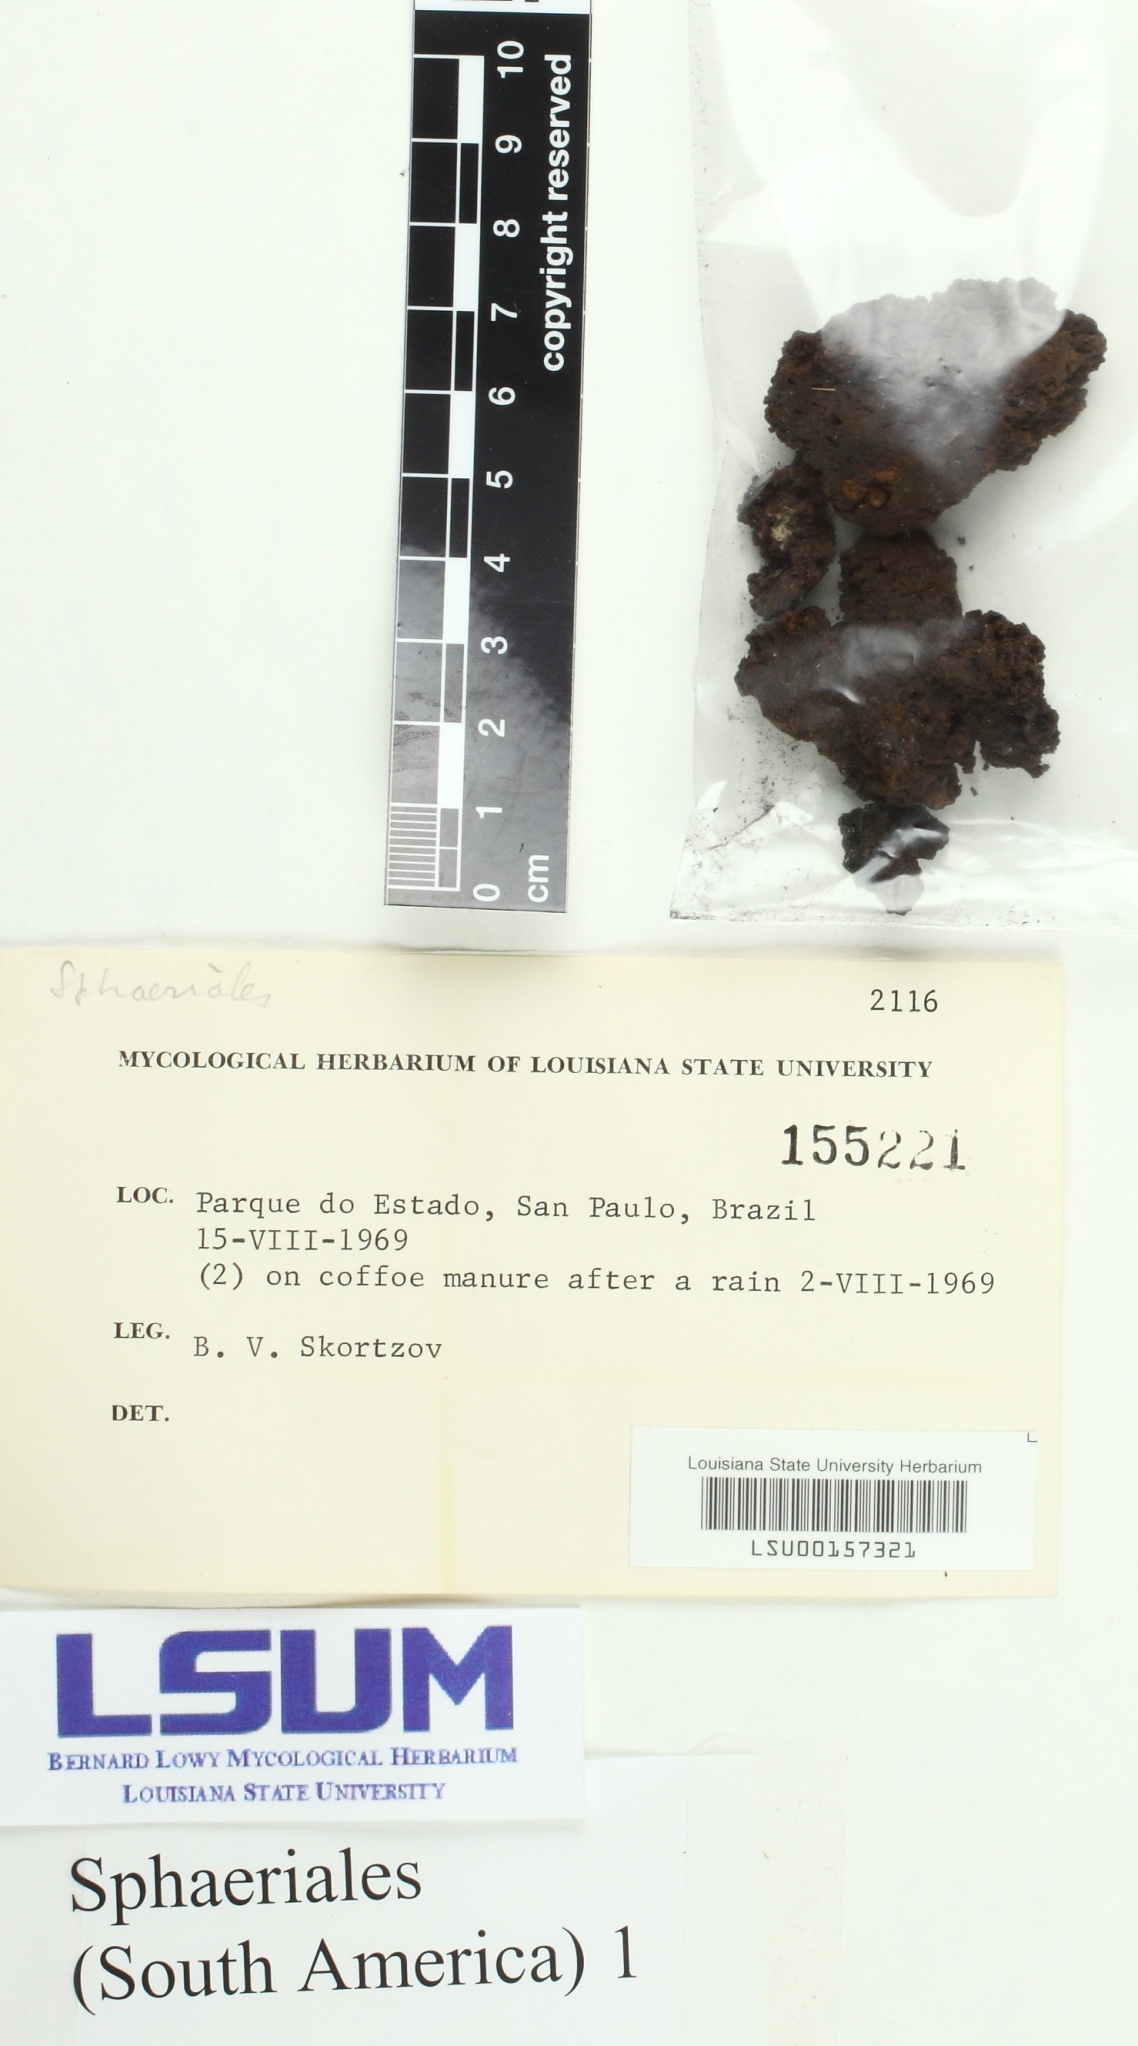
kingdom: Fungi
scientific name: Fungi
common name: Fungi
